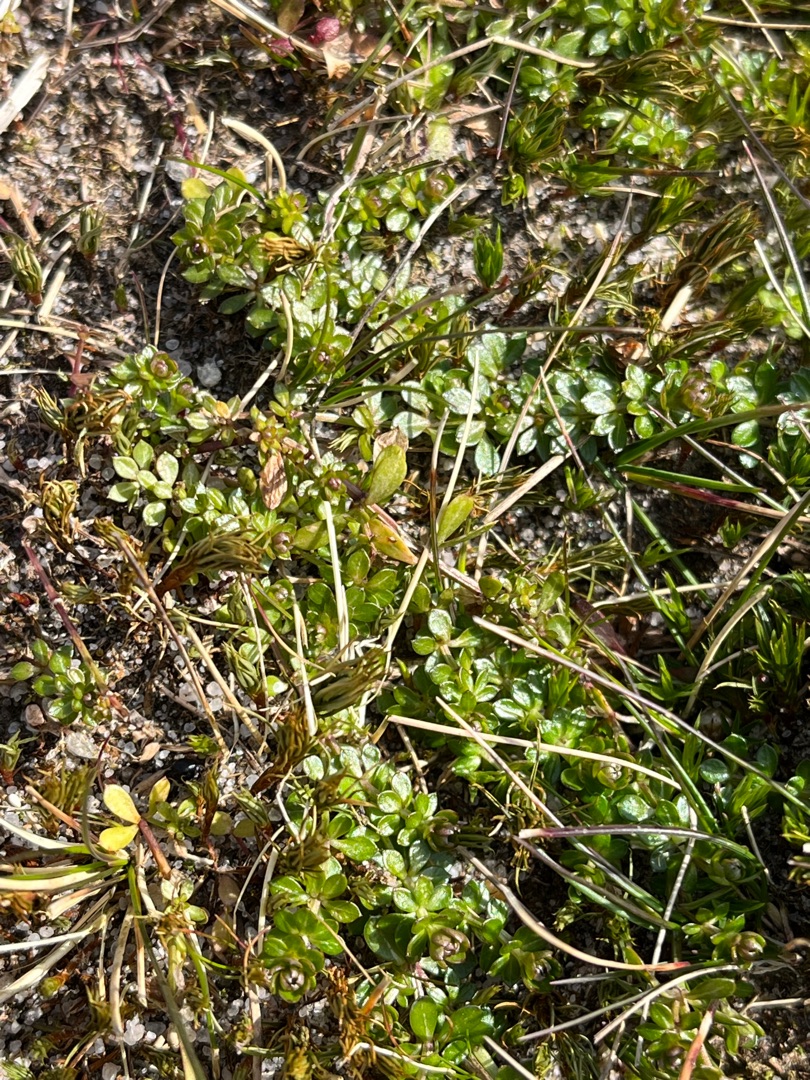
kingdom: Plantae
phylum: Tracheophyta
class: Magnoliopsida
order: Gentianales
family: Rubiaceae
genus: Galium
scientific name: Galium saxatile
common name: Lyng-snerre
